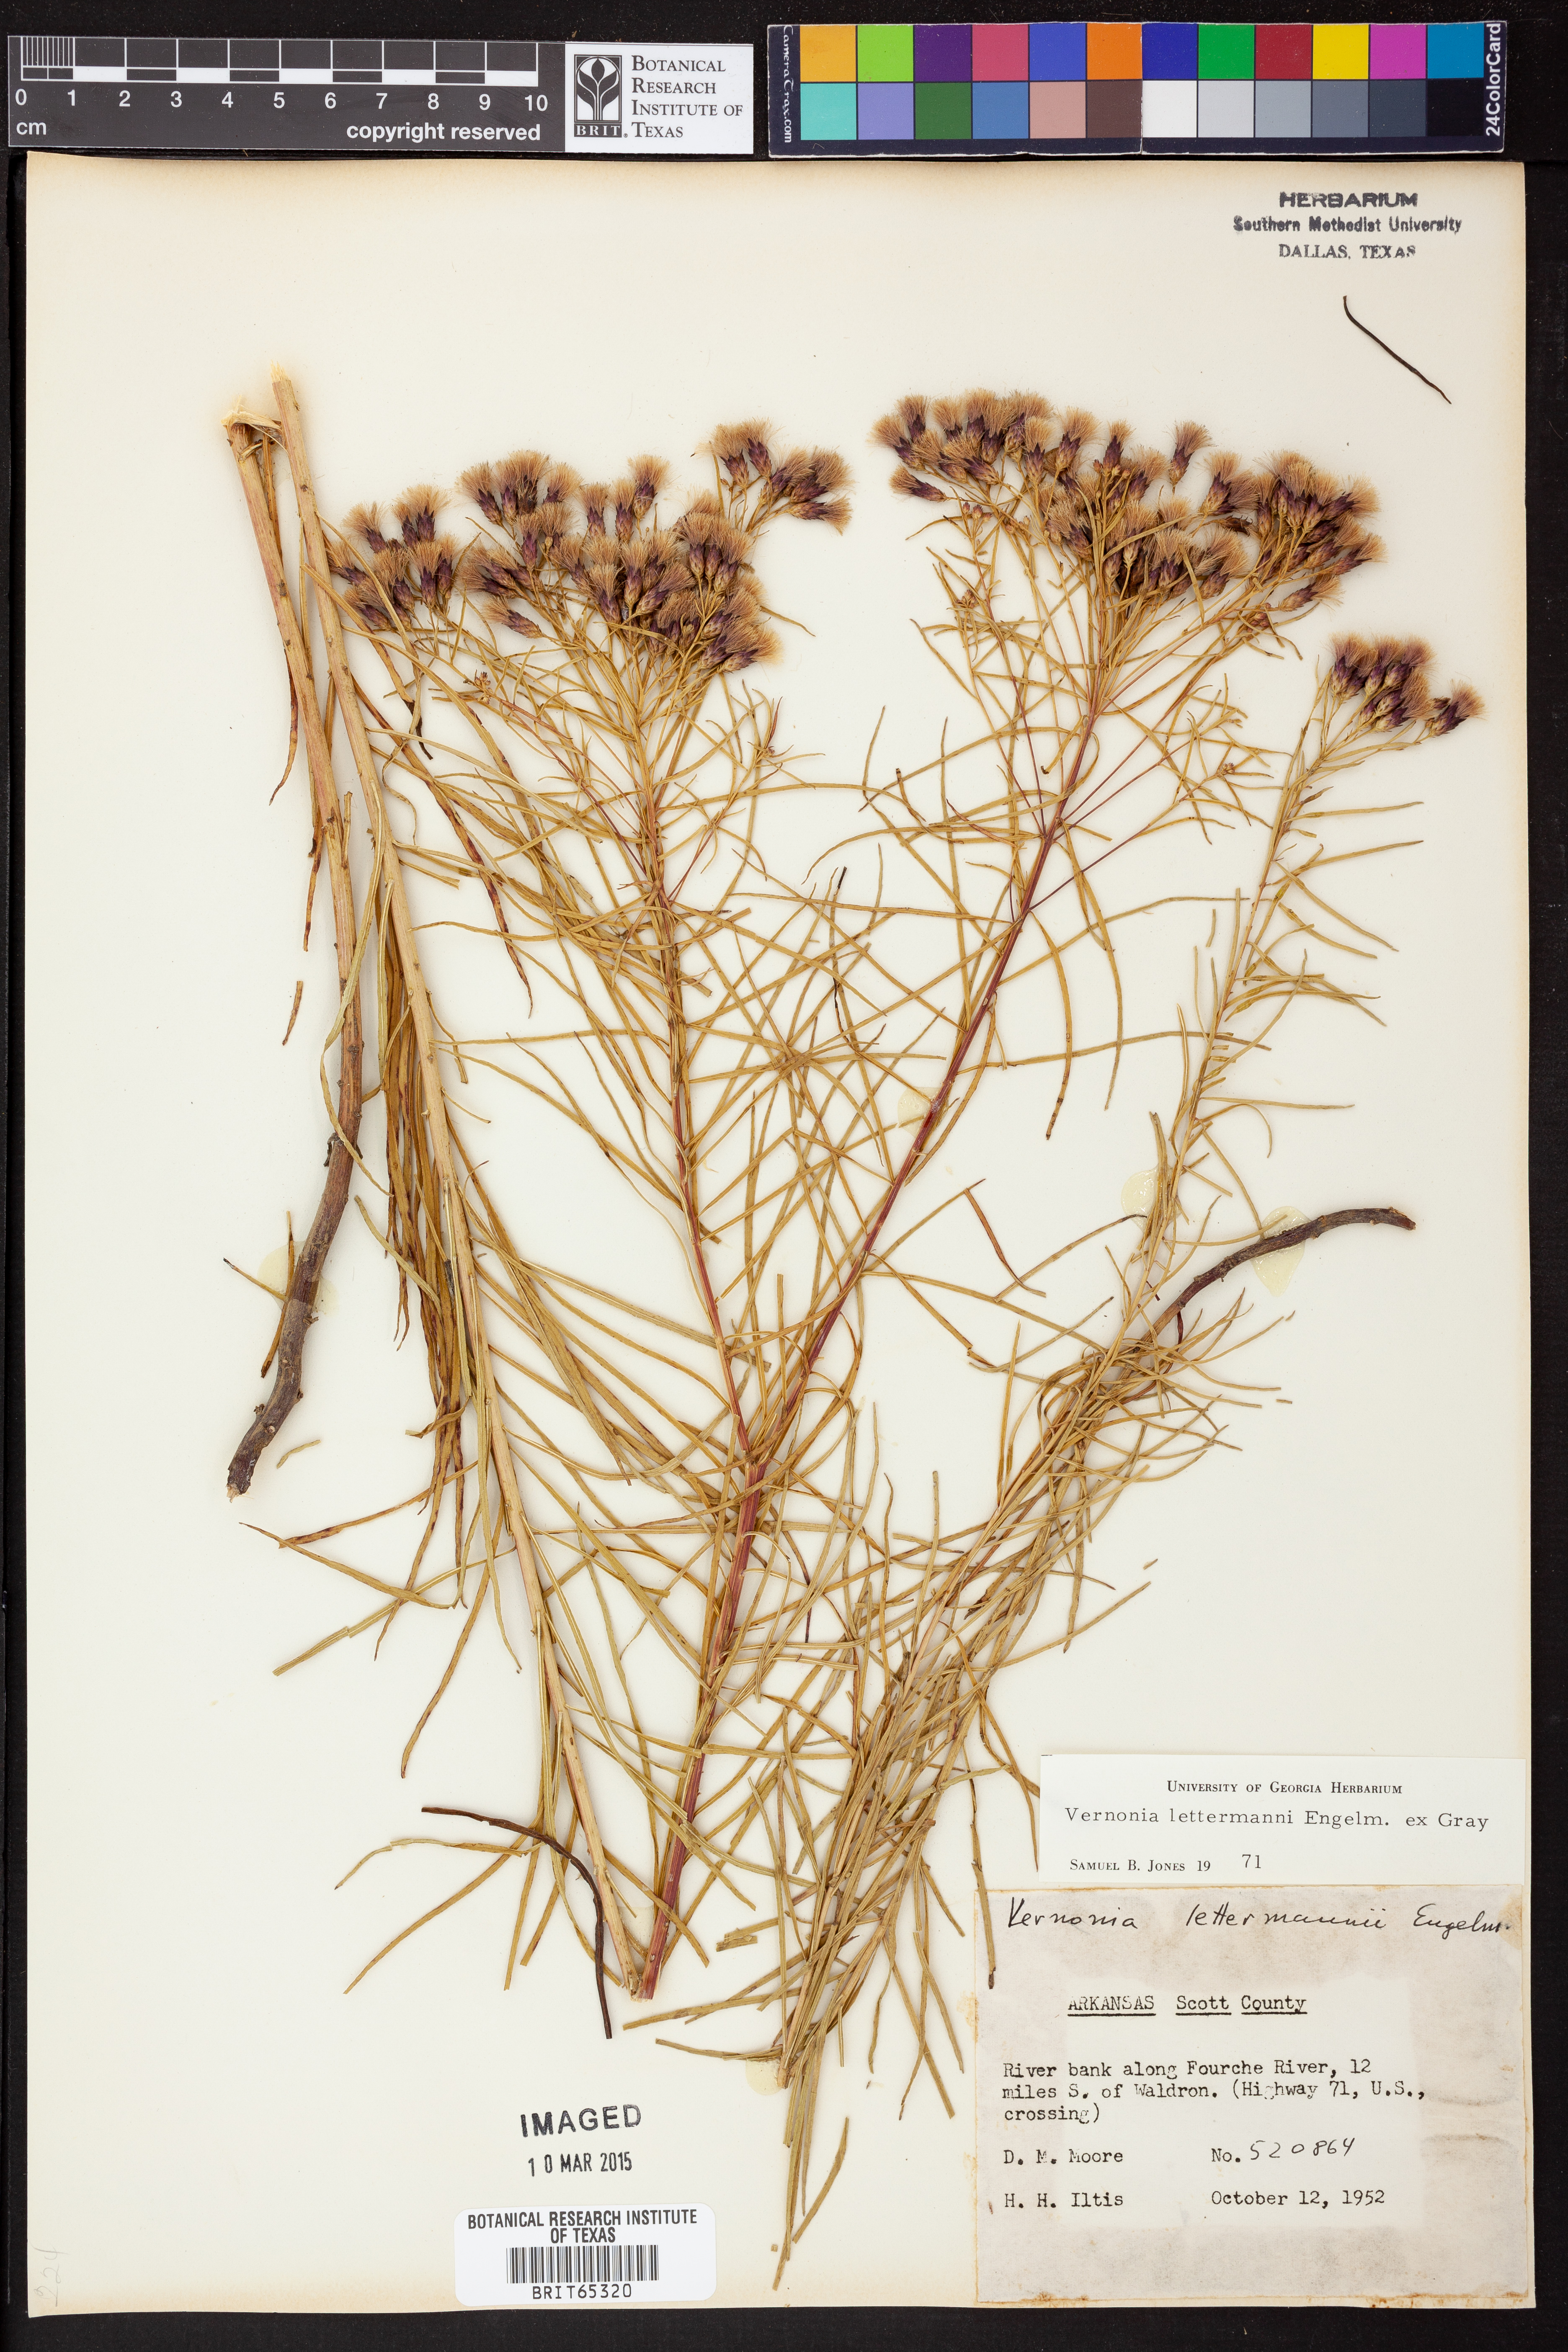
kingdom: Plantae
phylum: Tracheophyta
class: Magnoliopsida
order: Asterales
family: Asteraceae
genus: Vernonia
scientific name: Vernonia lettermannii
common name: Lettermann's ironweed
